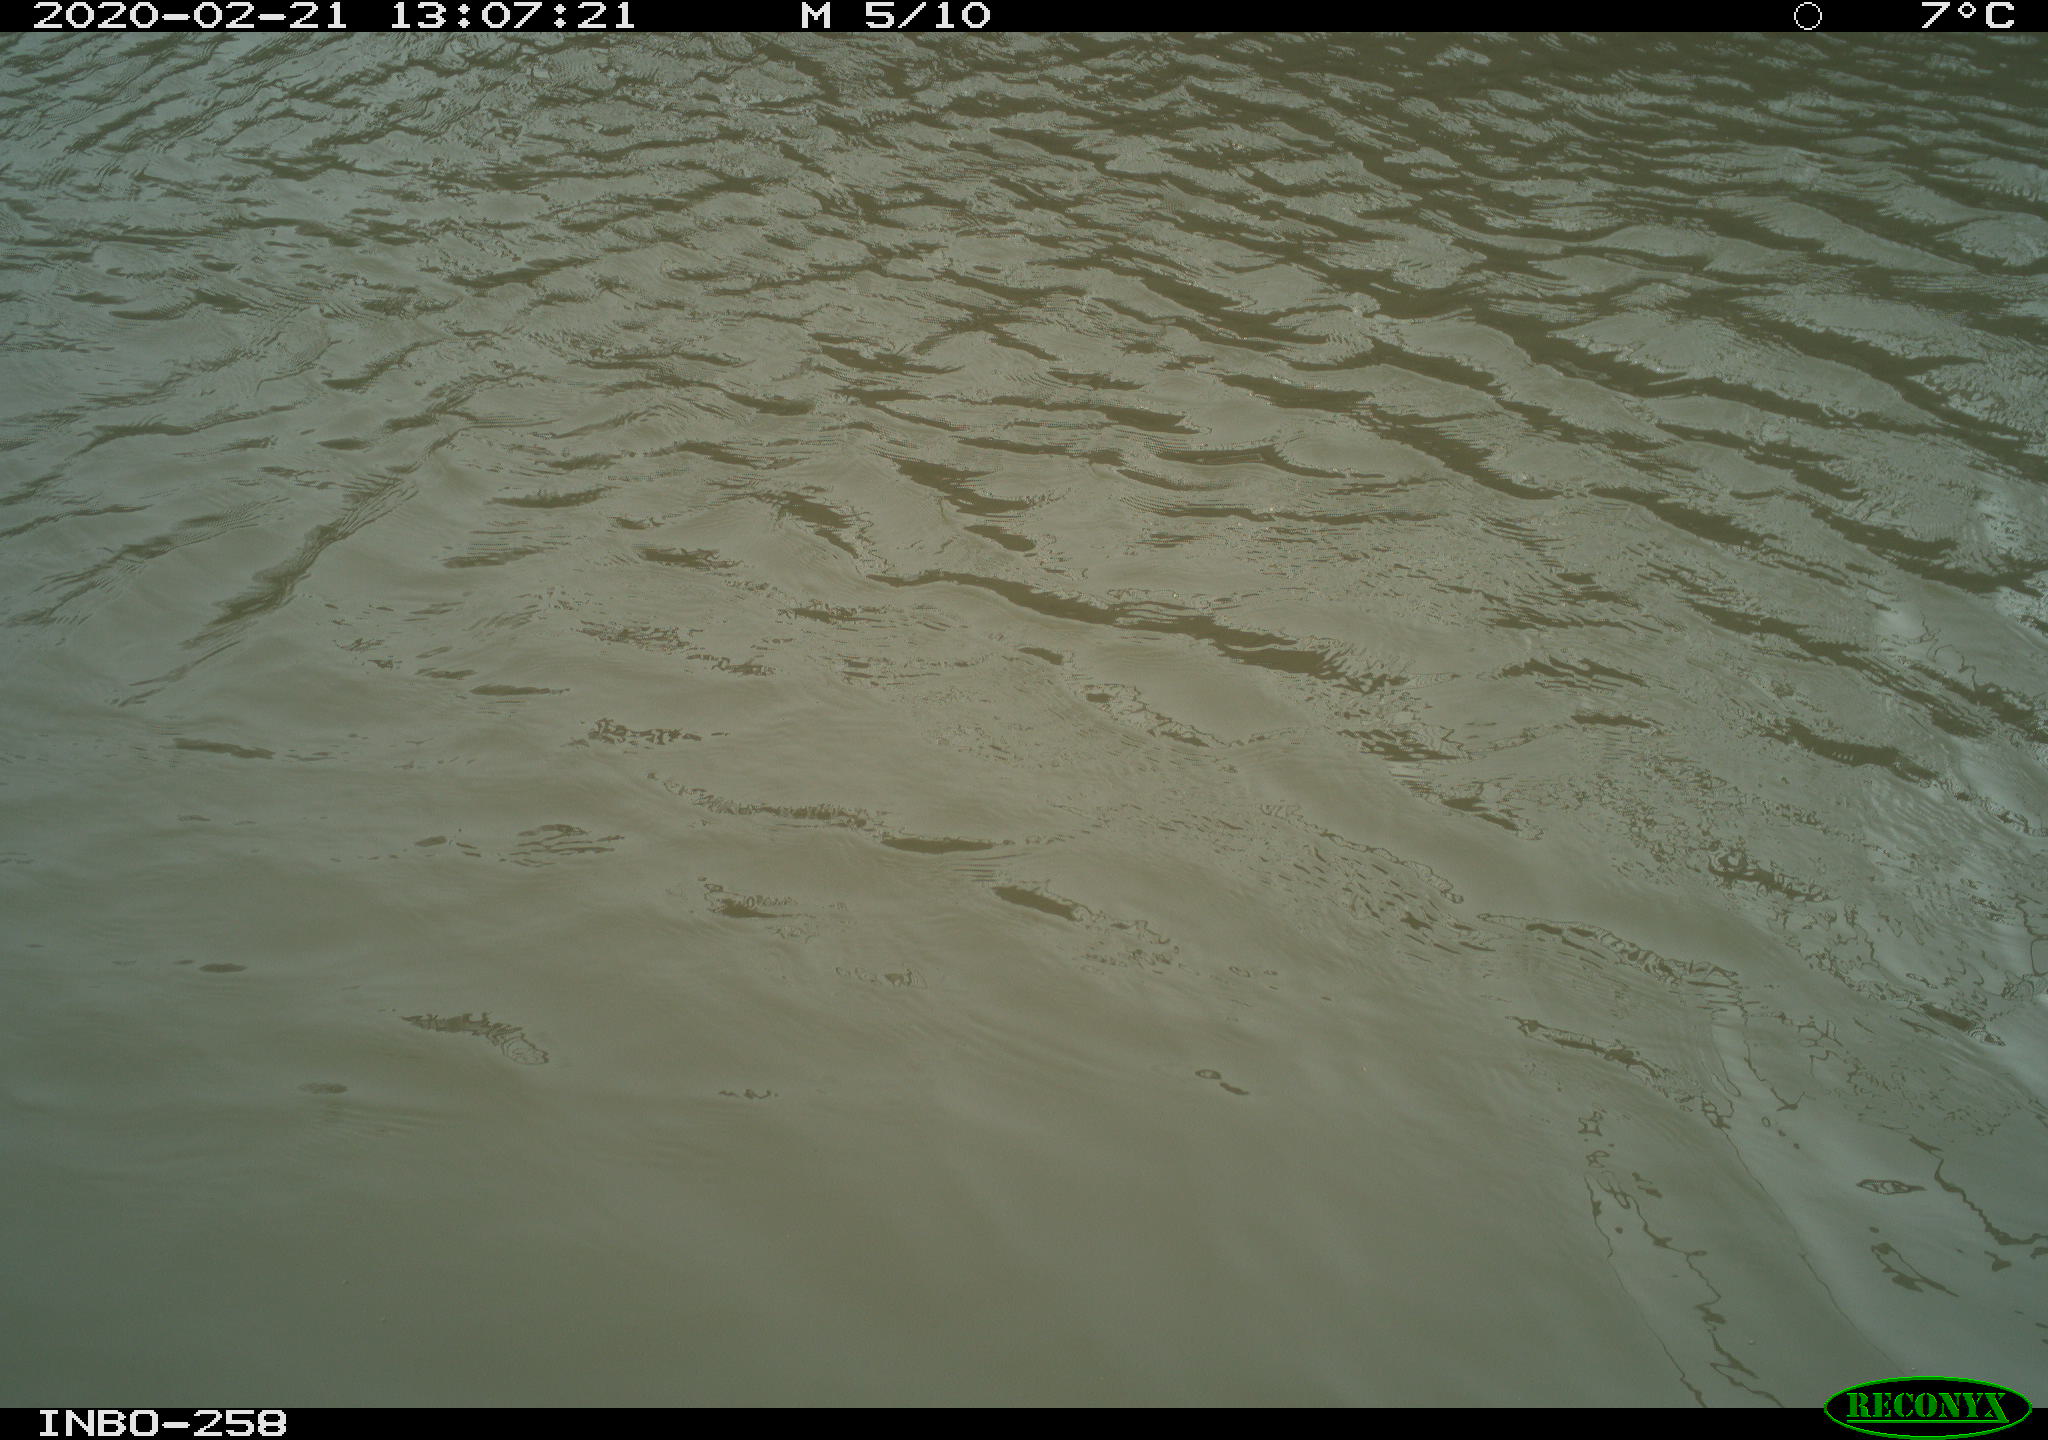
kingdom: Animalia
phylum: Chordata
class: Aves
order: Gruiformes
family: Rallidae
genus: Gallinula
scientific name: Gallinula chloropus
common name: Common moorhen
